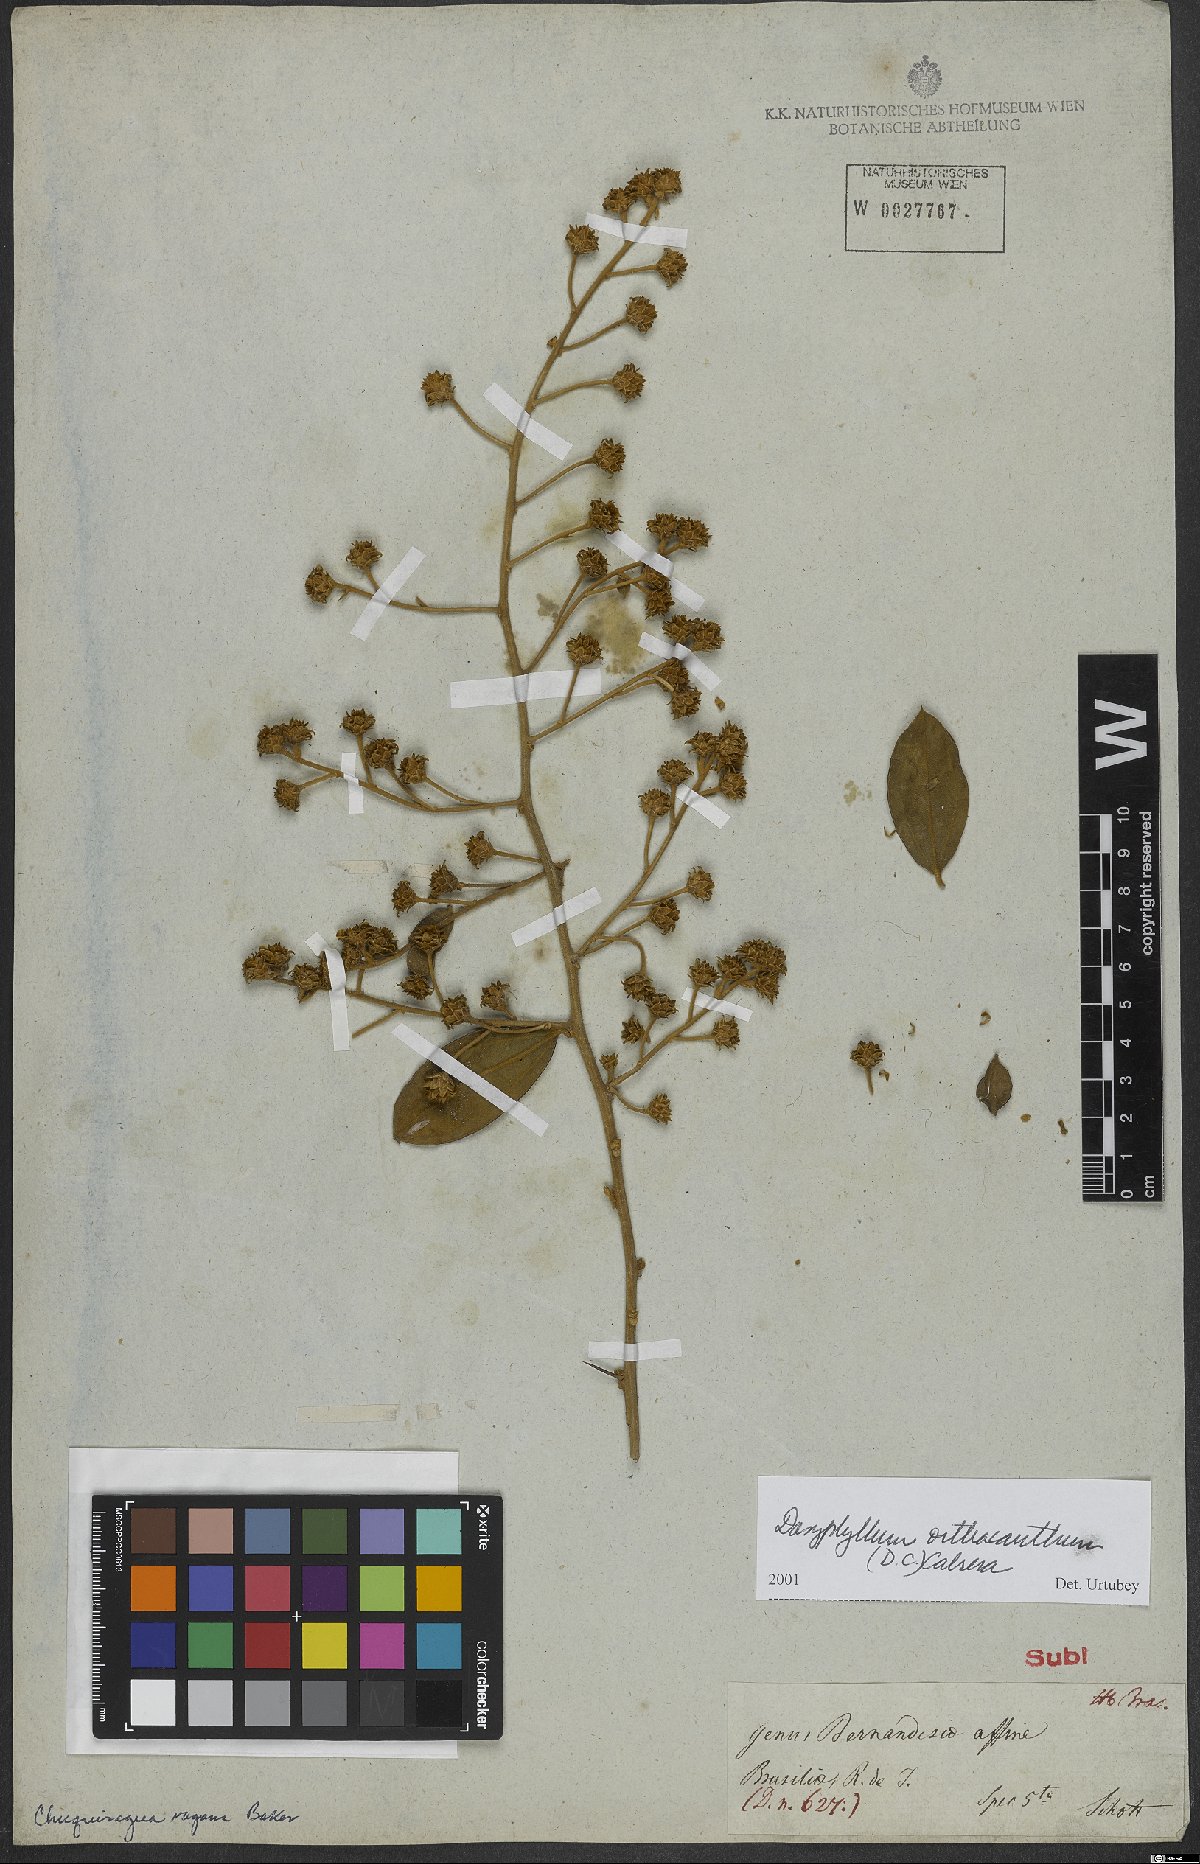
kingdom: Plantae
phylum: Tracheophyta
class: Magnoliopsida
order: Asterales
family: Asteraceae
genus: Dasyphyllum
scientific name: Dasyphyllum orthacanthum
